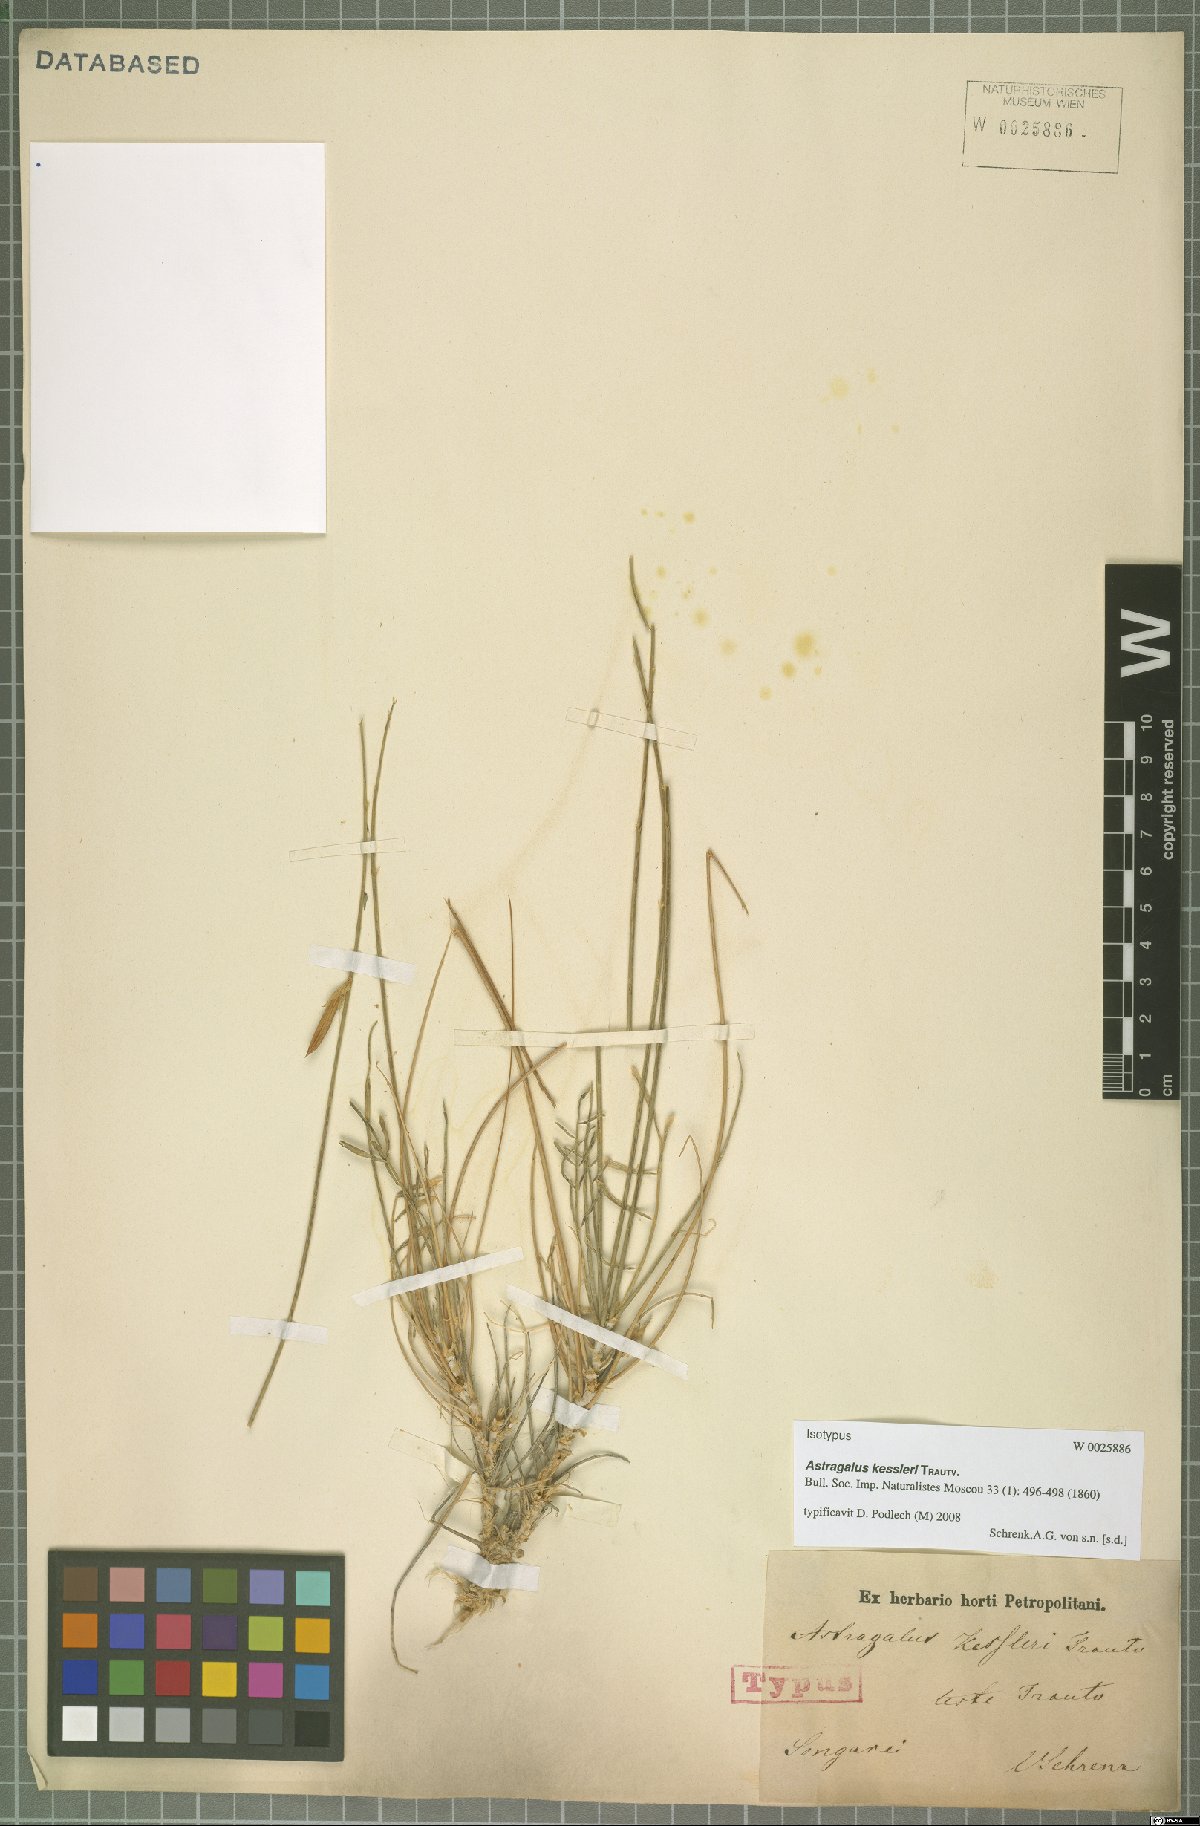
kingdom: Plantae
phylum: Tracheophyta
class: Magnoliopsida
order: Fabales
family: Fabaceae
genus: Astragalus
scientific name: Astragalus kessleri
